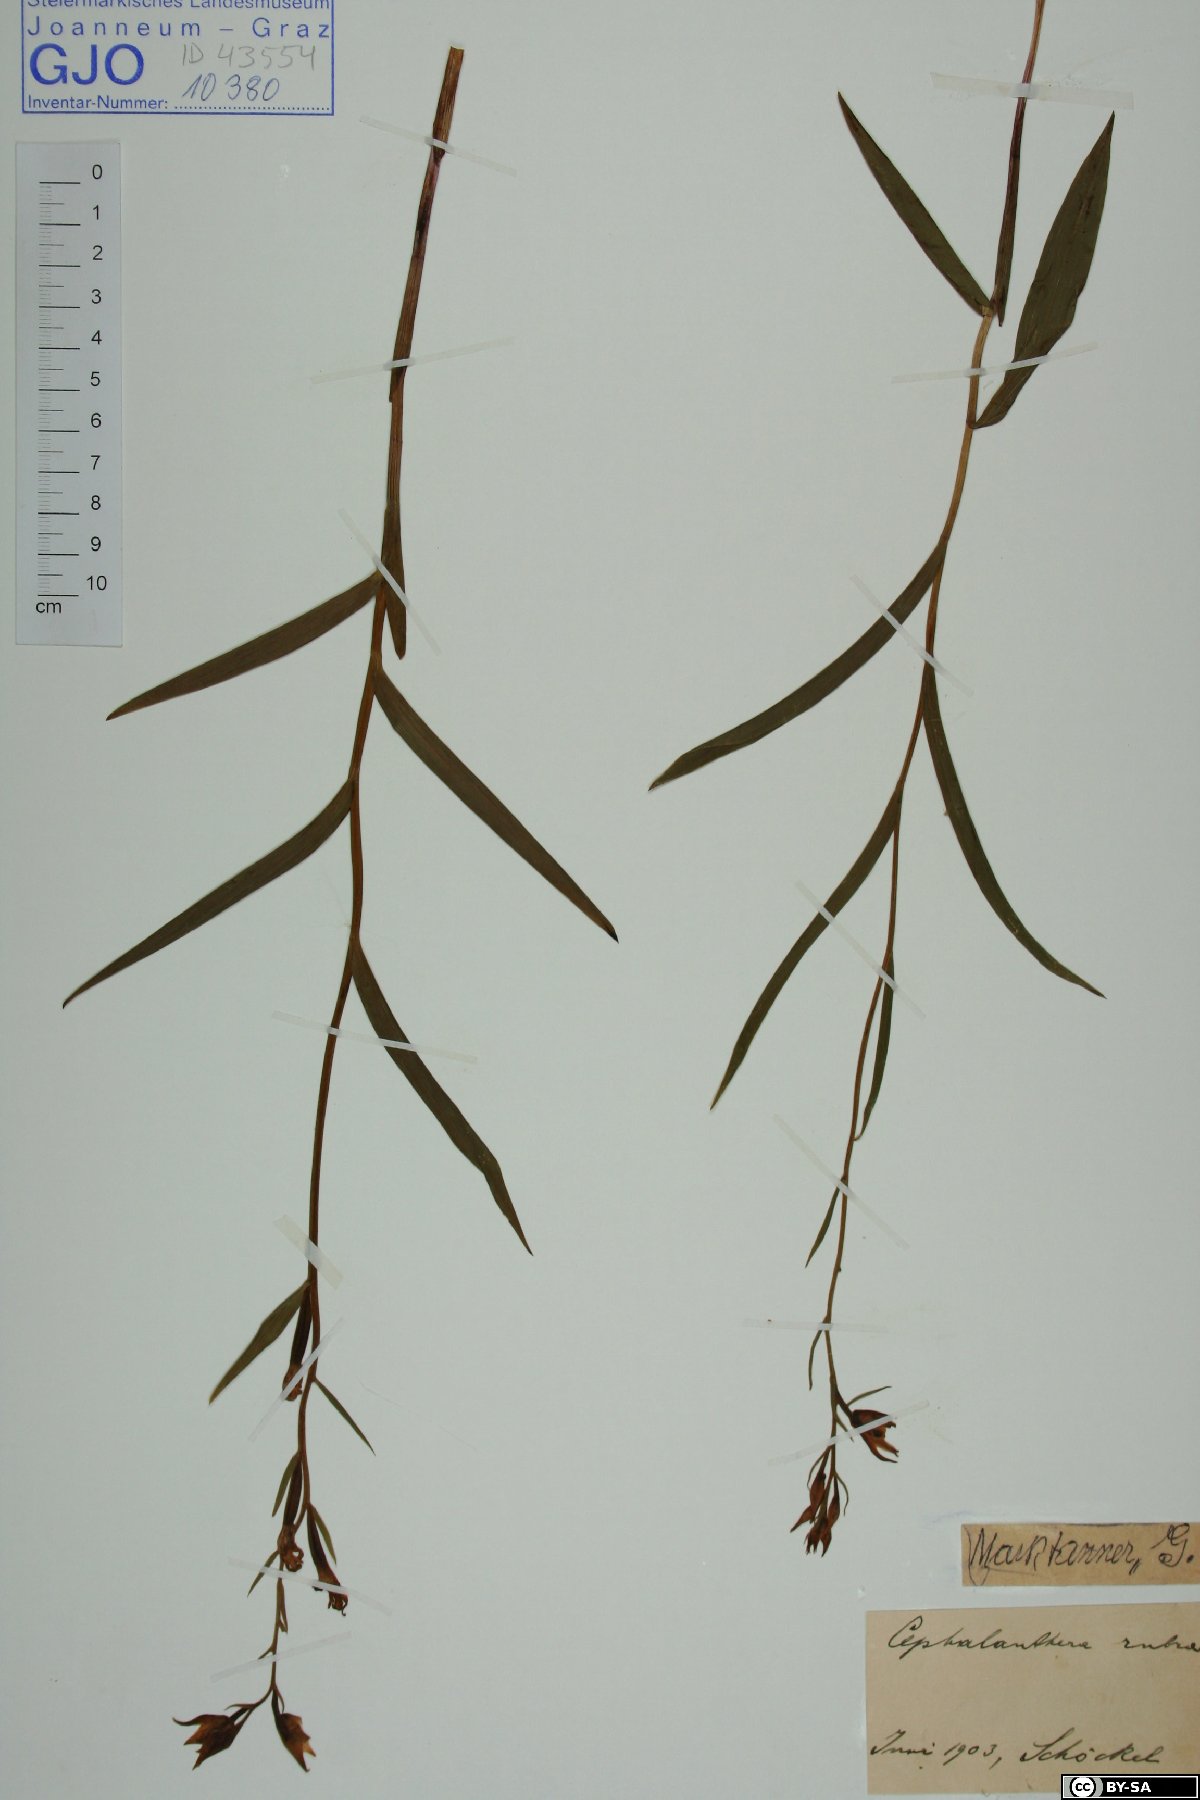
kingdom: Plantae
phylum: Tracheophyta
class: Liliopsida
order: Asparagales
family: Orchidaceae
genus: Cephalanthera
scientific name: Cephalanthera rubra
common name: Red helleborine
